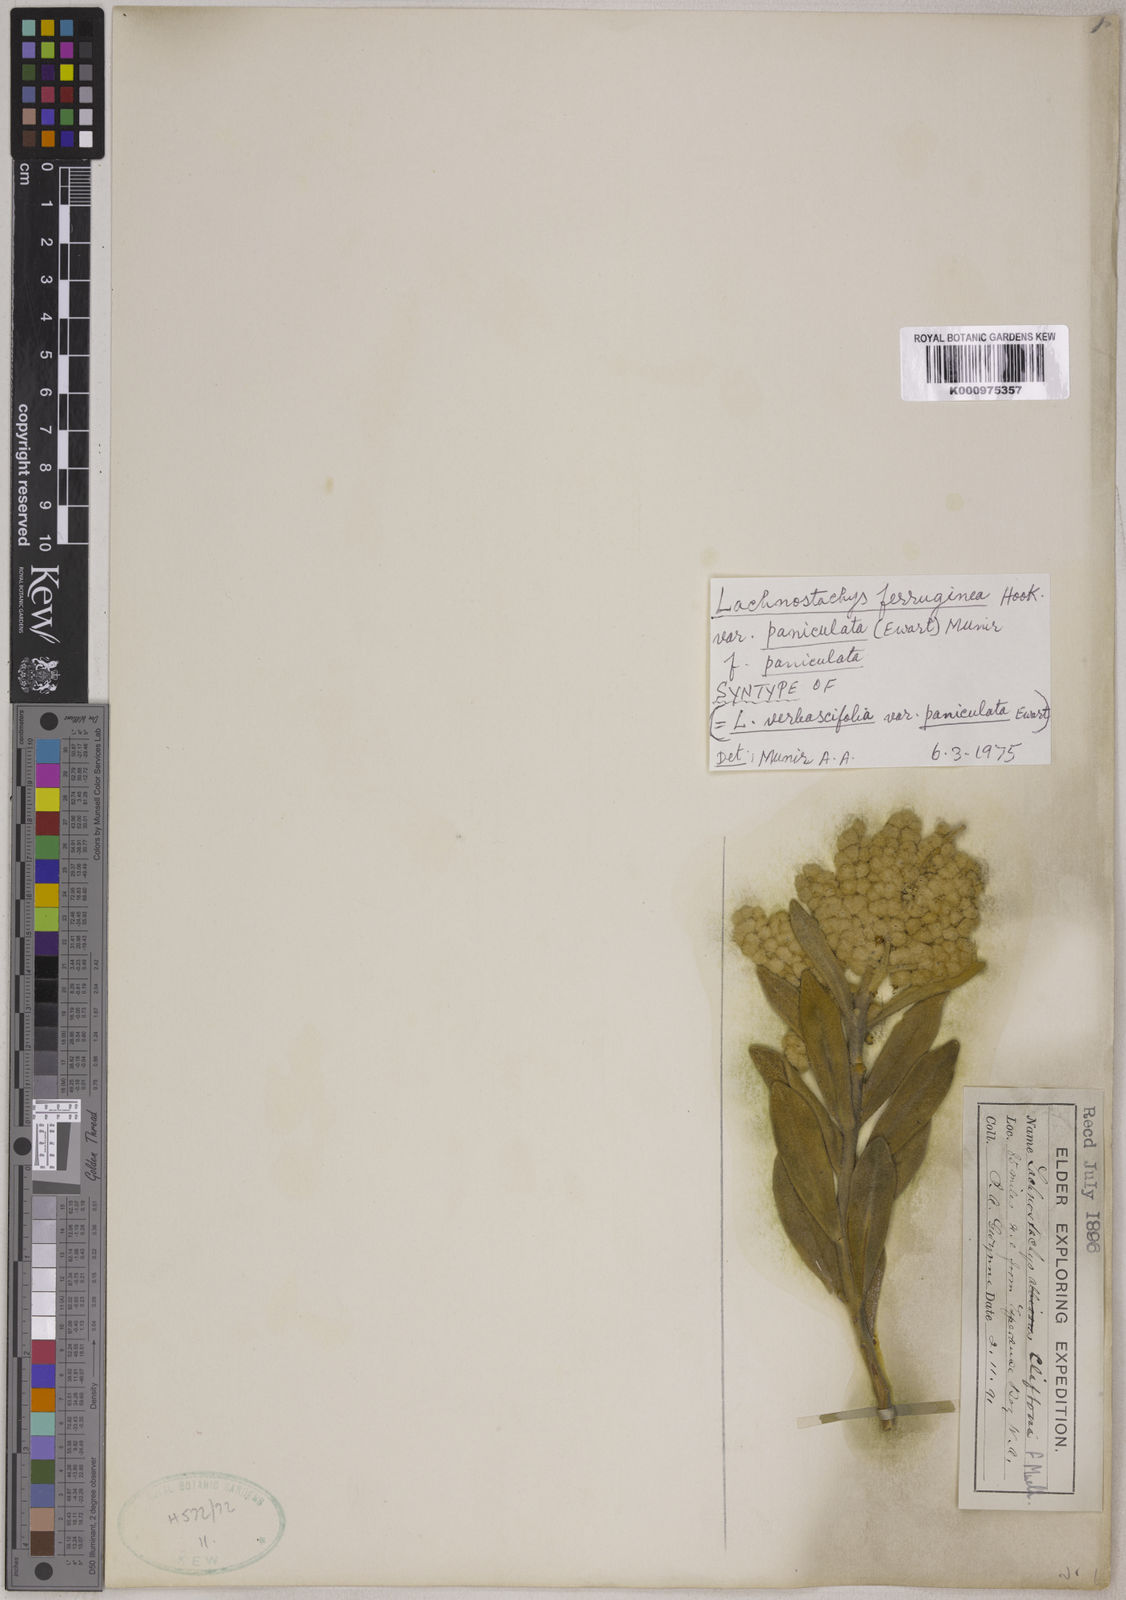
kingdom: Plantae
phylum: Tracheophyta
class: Magnoliopsida
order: Lamiales
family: Lamiaceae
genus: Lachnostachys
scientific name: Lachnostachys verbascifolia
